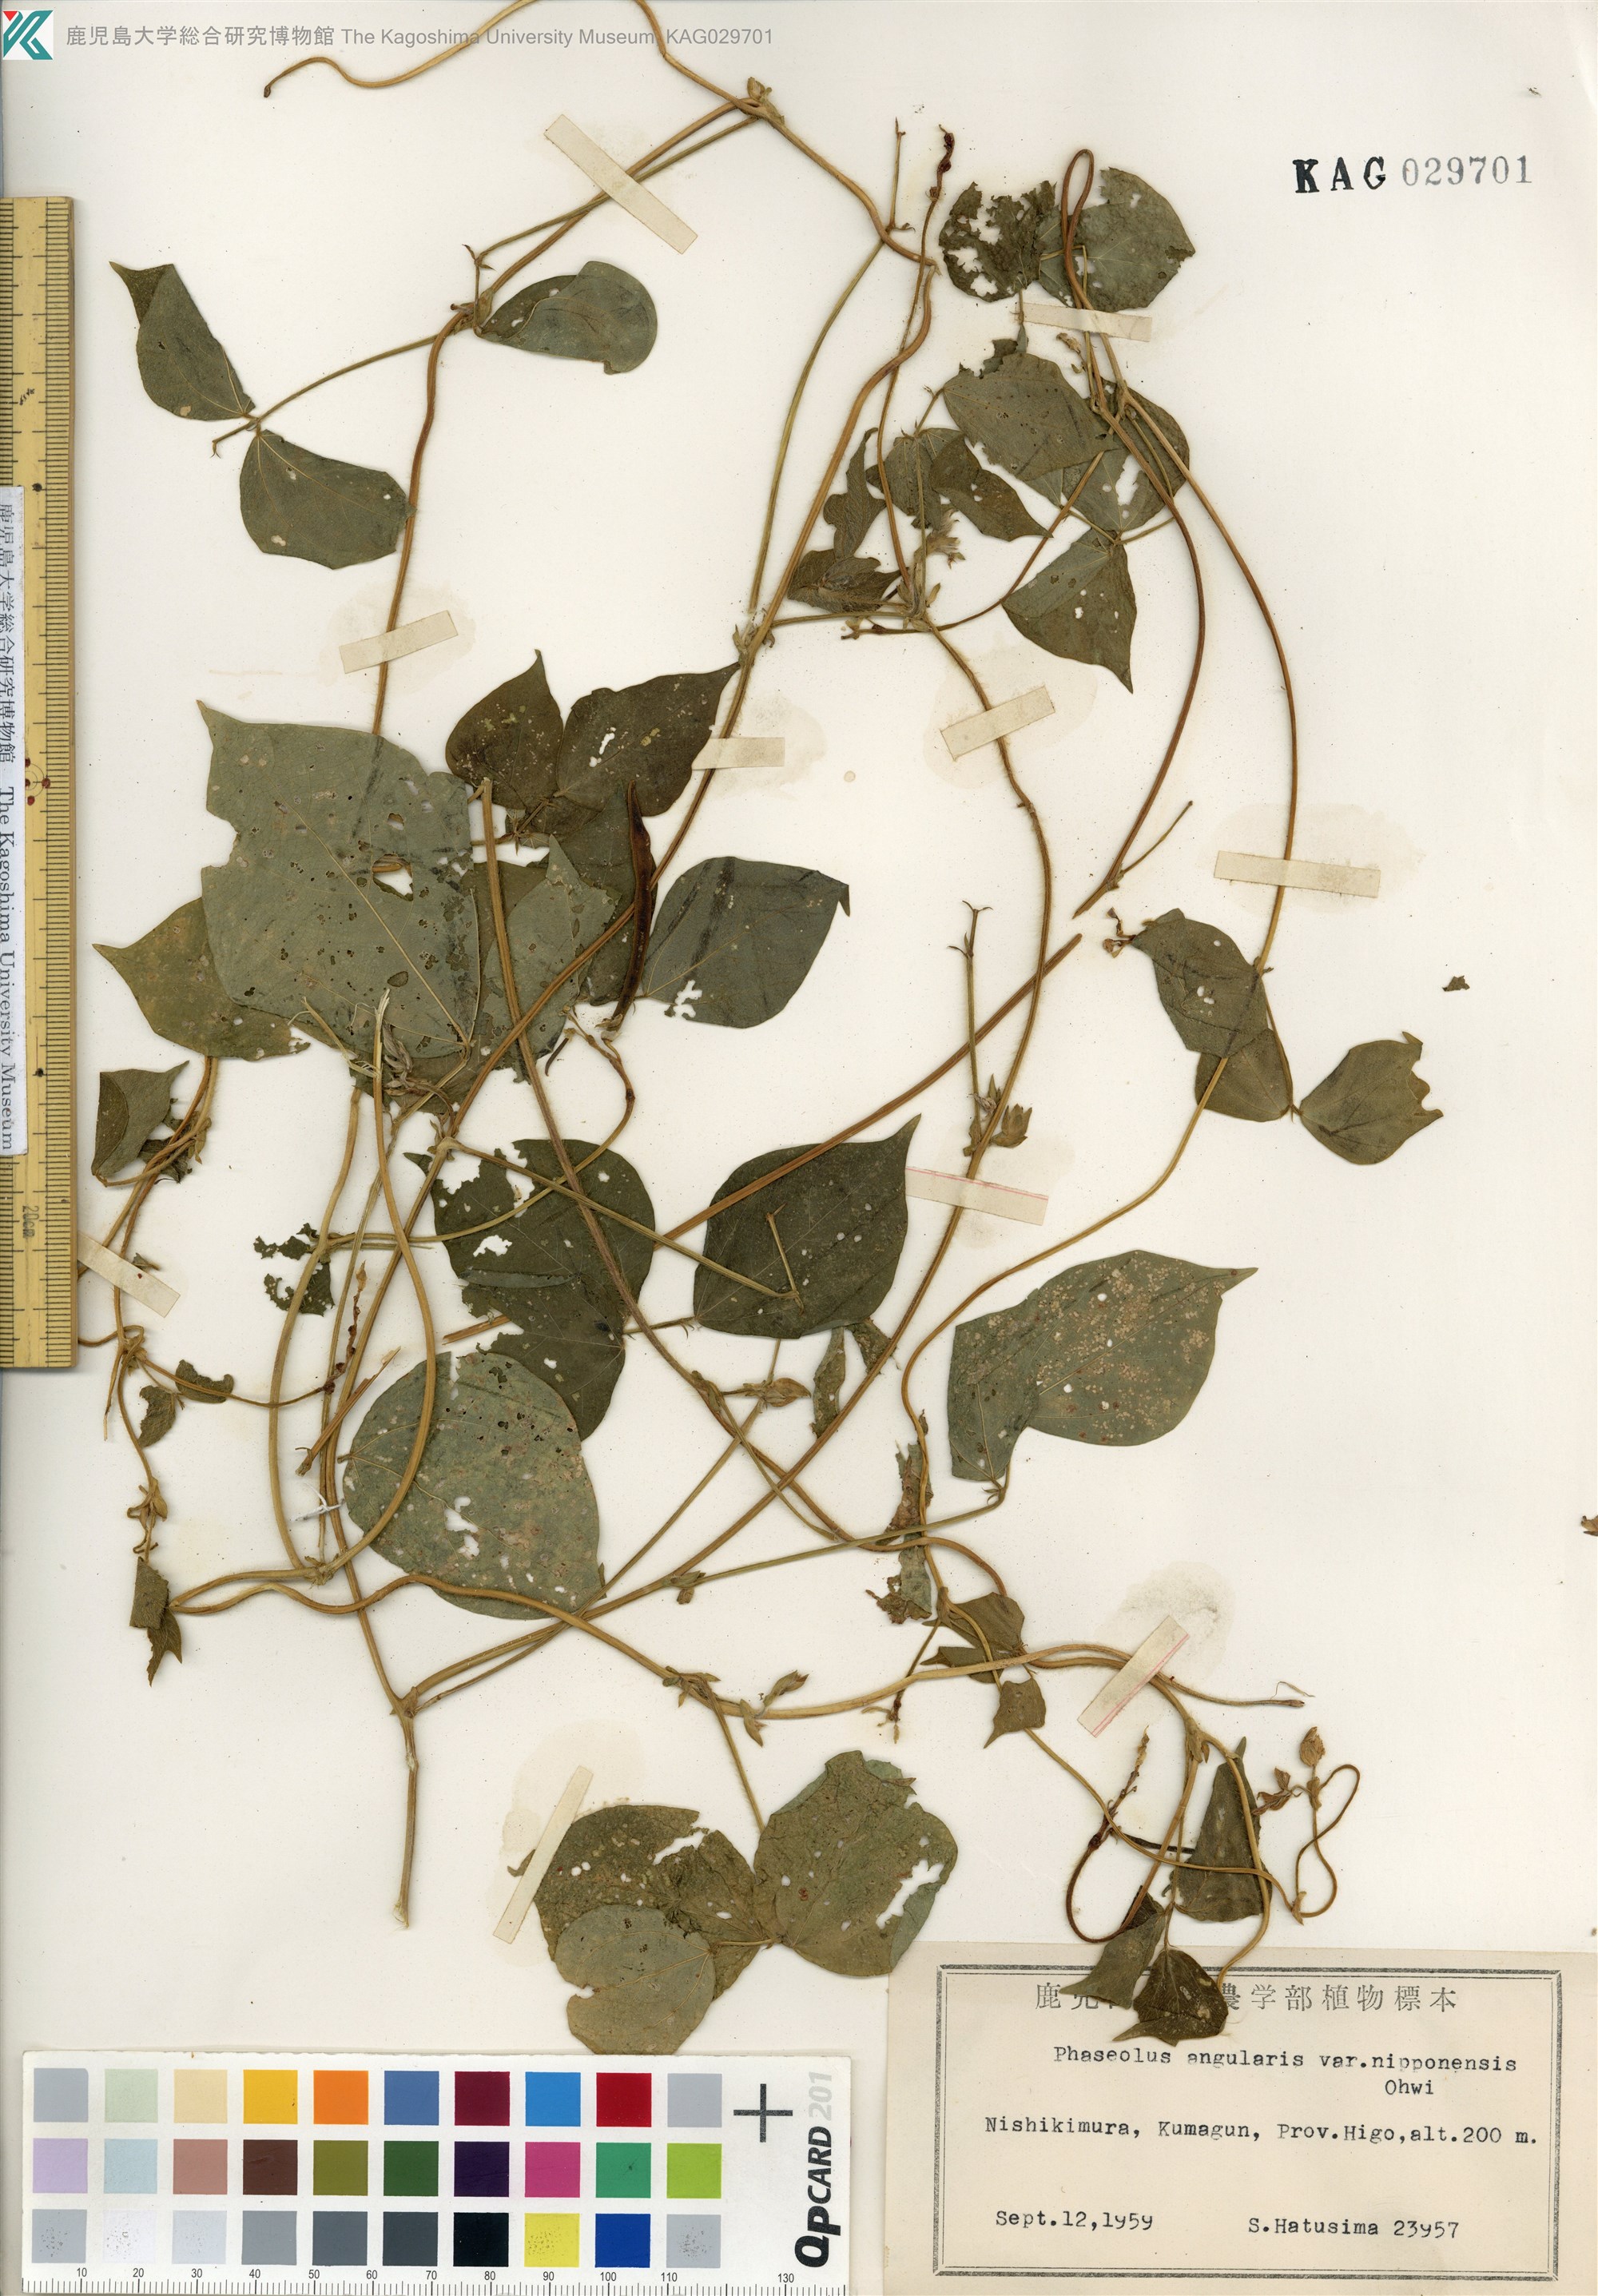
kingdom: Plantae
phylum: Tracheophyta
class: Magnoliopsida
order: Fabales
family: Fabaceae
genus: Vigna
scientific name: Vigna angularis
